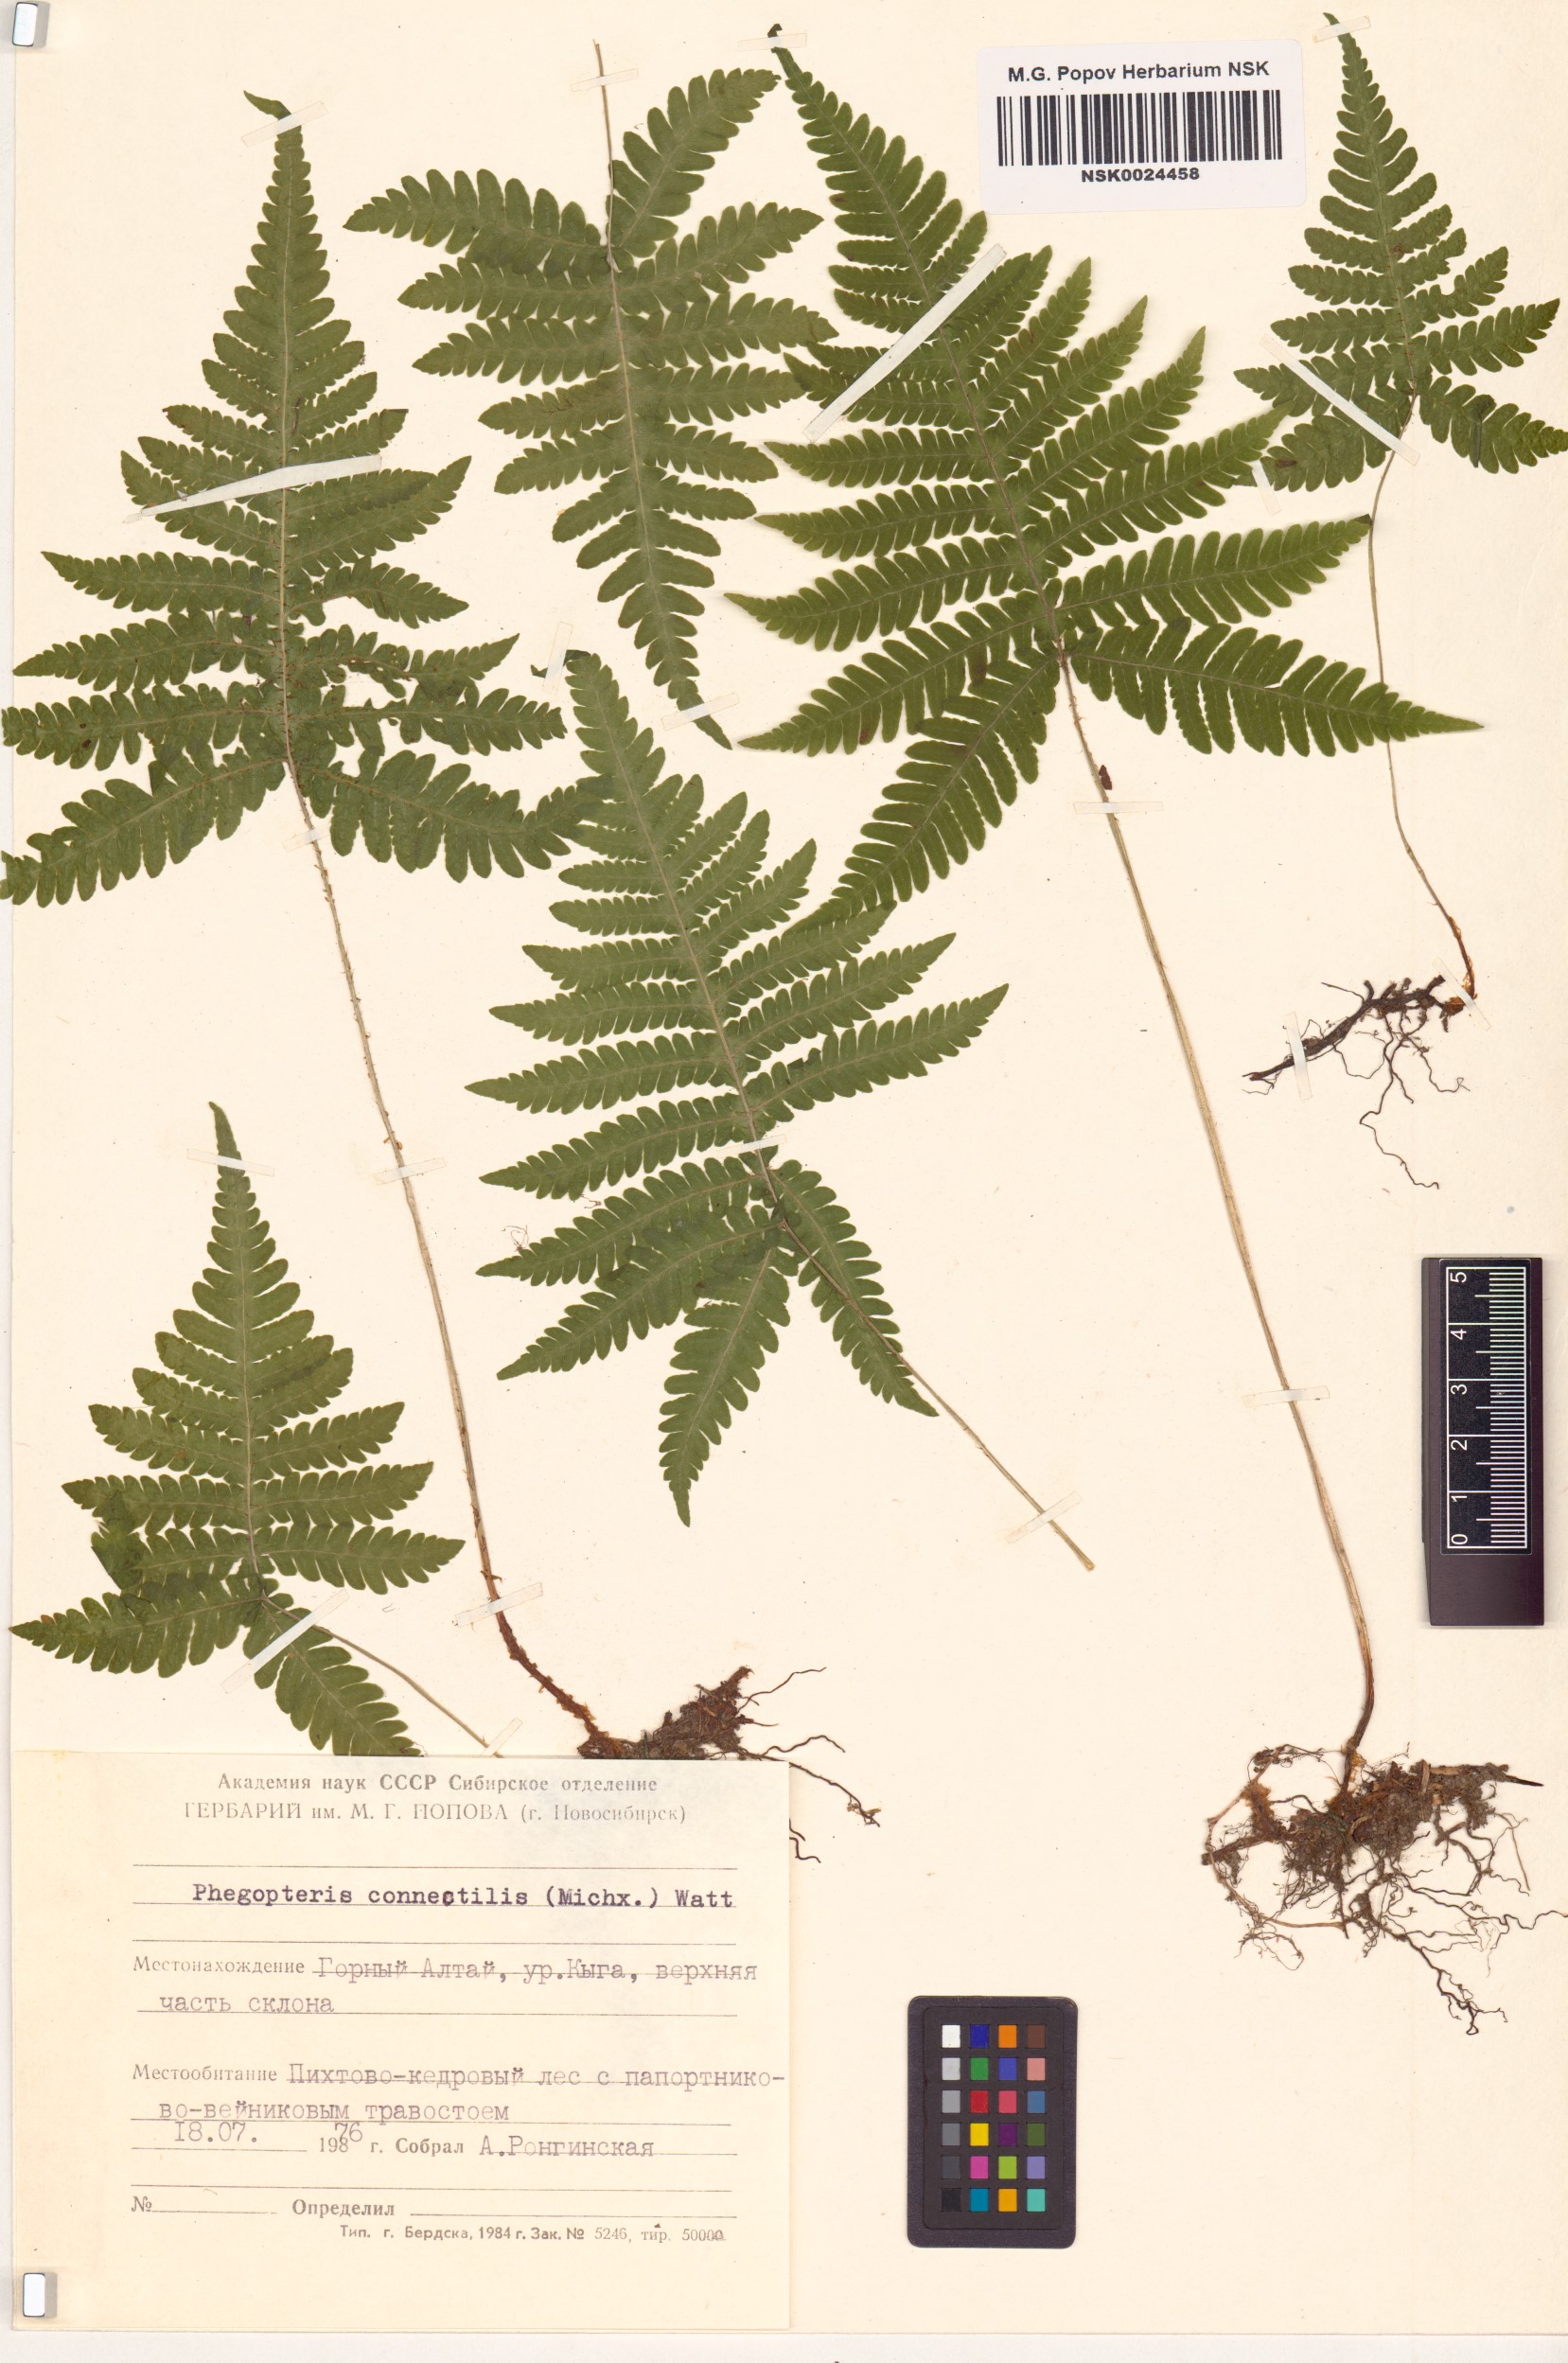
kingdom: Plantae
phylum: Tracheophyta
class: Polypodiopsida
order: Polypodiales
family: Thelypteridaceae
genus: Phegopteris
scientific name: Phegopteris connectilis
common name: Beech fern
